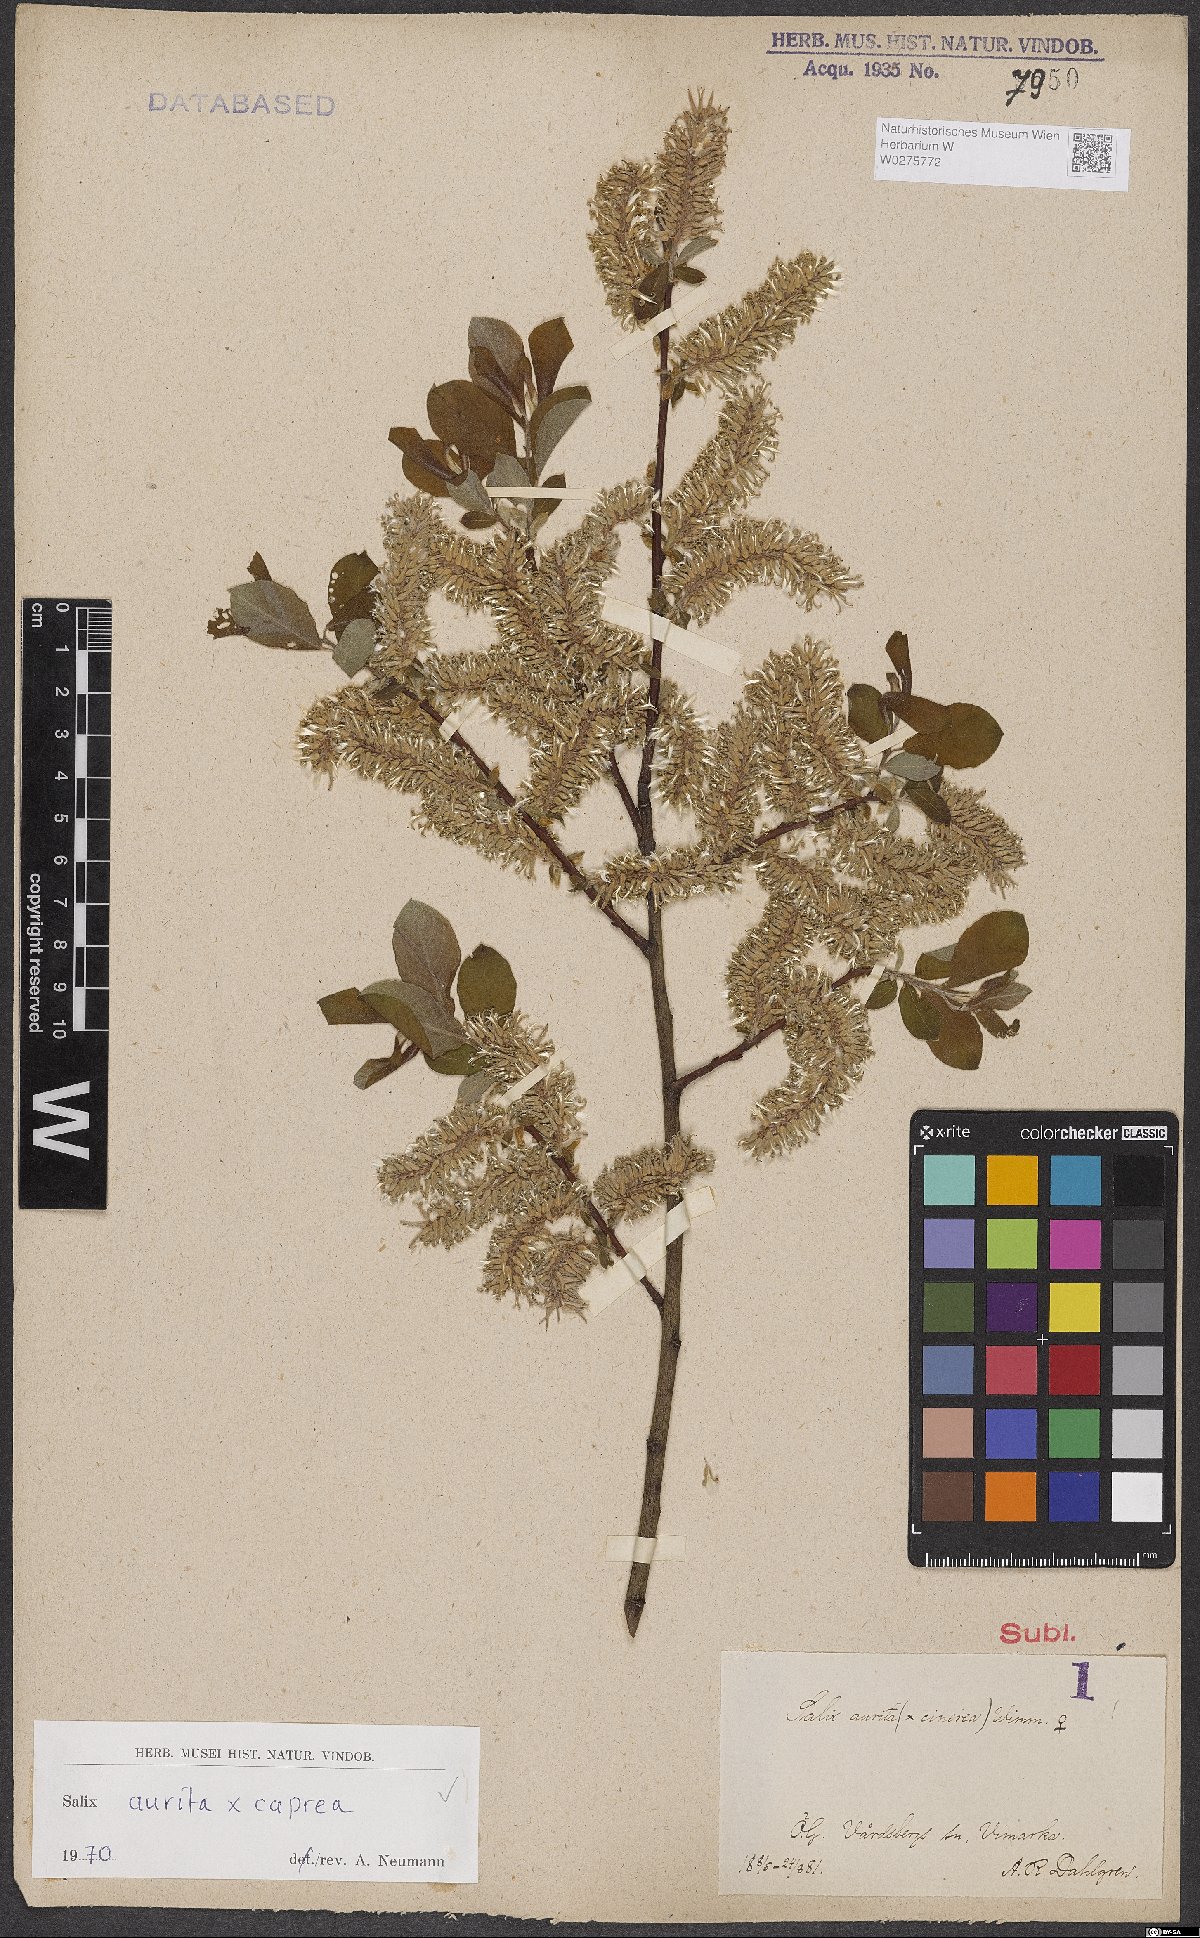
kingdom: Plantae
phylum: Tracheophyta
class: Magnoliopsida
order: Malpighiales
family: Salicaceae
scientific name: Salicaceae
